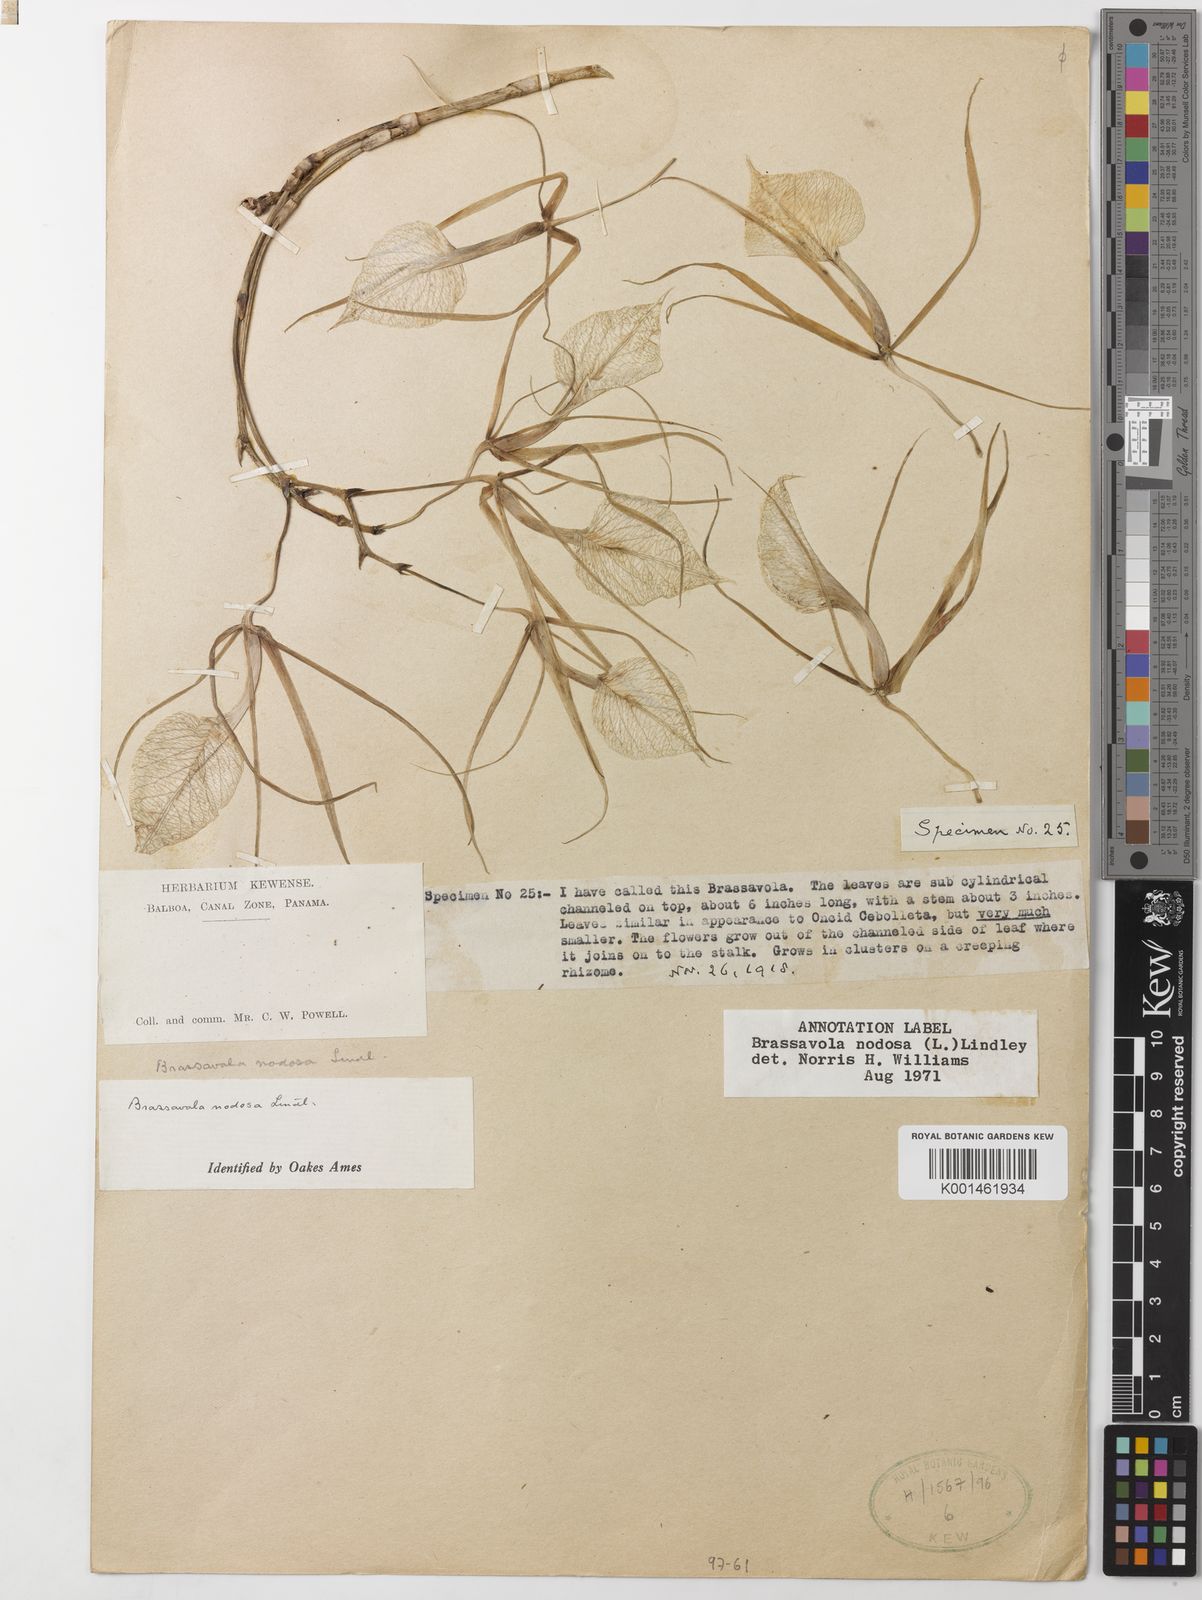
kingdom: Plantae
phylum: Tracheophyta
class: Liliopsida
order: Asparagales
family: Orchidaceae
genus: Brassavola
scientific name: Brassavola nodosa
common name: Lady of the night
